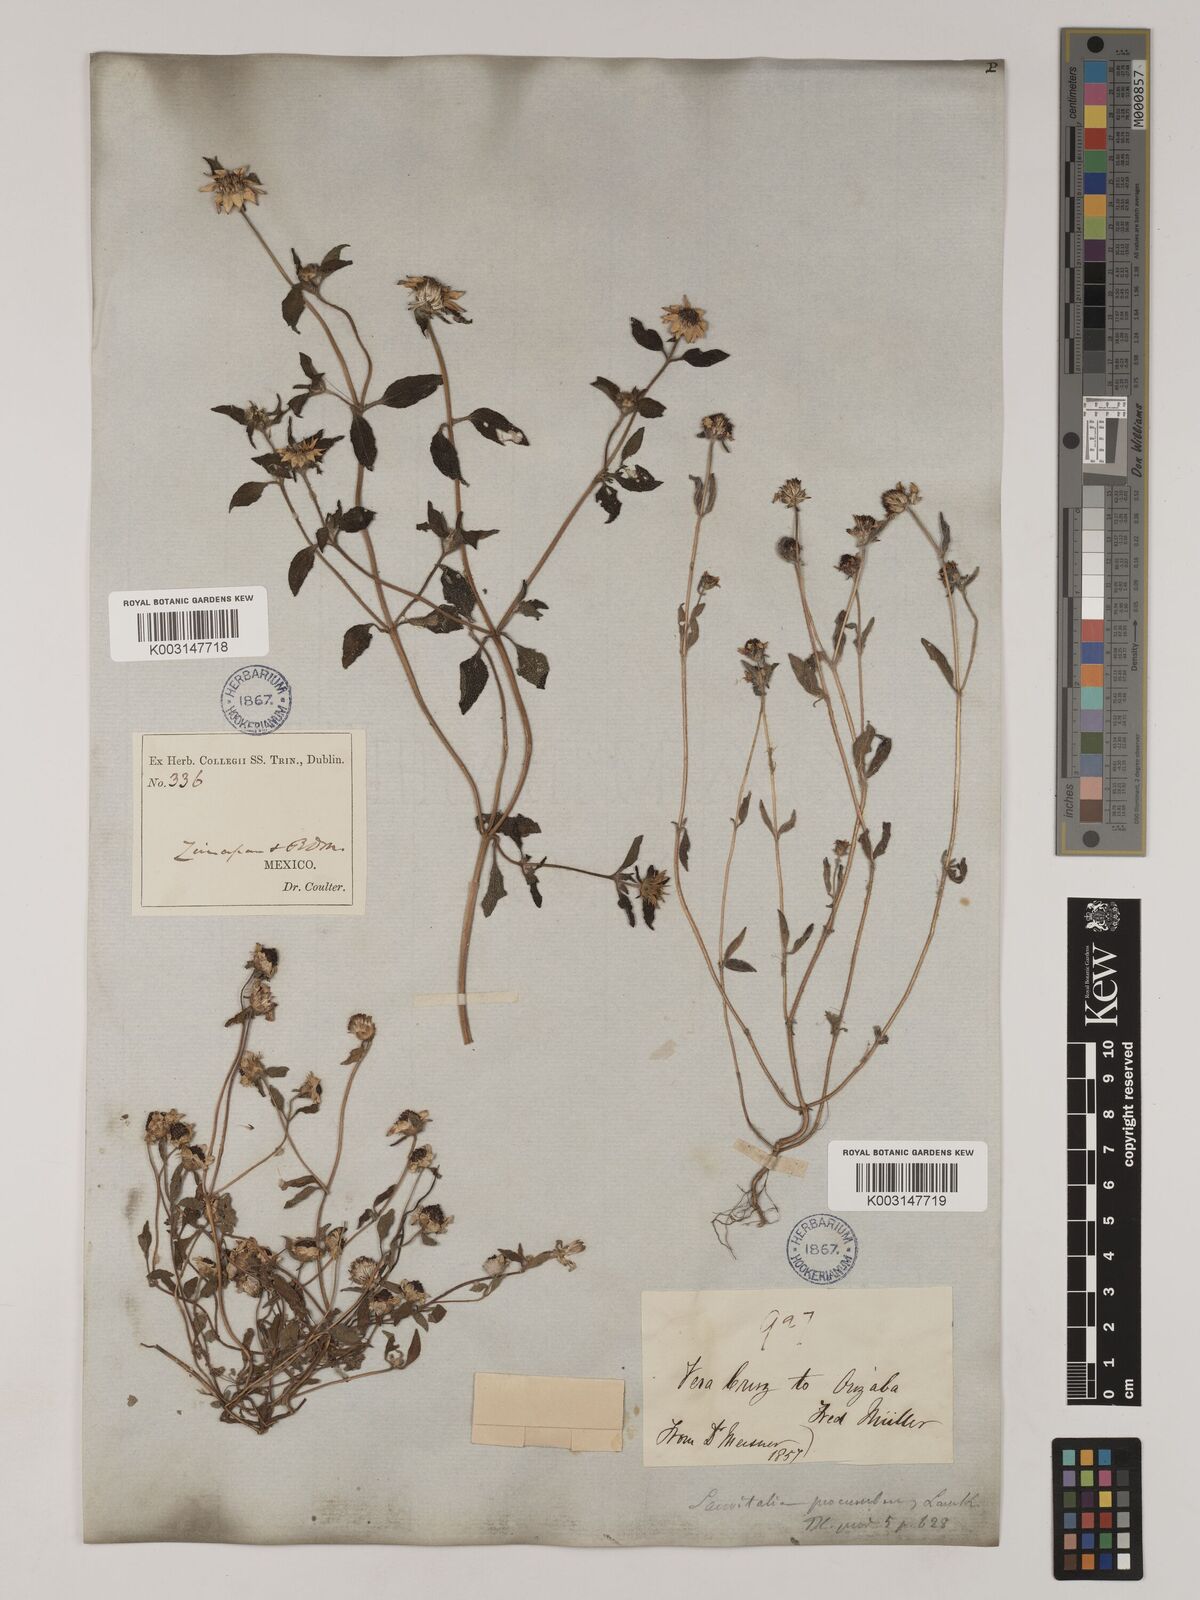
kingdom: Plantae
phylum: Tracheophyta
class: Magnoliopsida
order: Asterales
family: Asteraceae
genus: Sanvitalia
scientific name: Sanvitalia procumbens
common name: Mexican creeping zinnia
